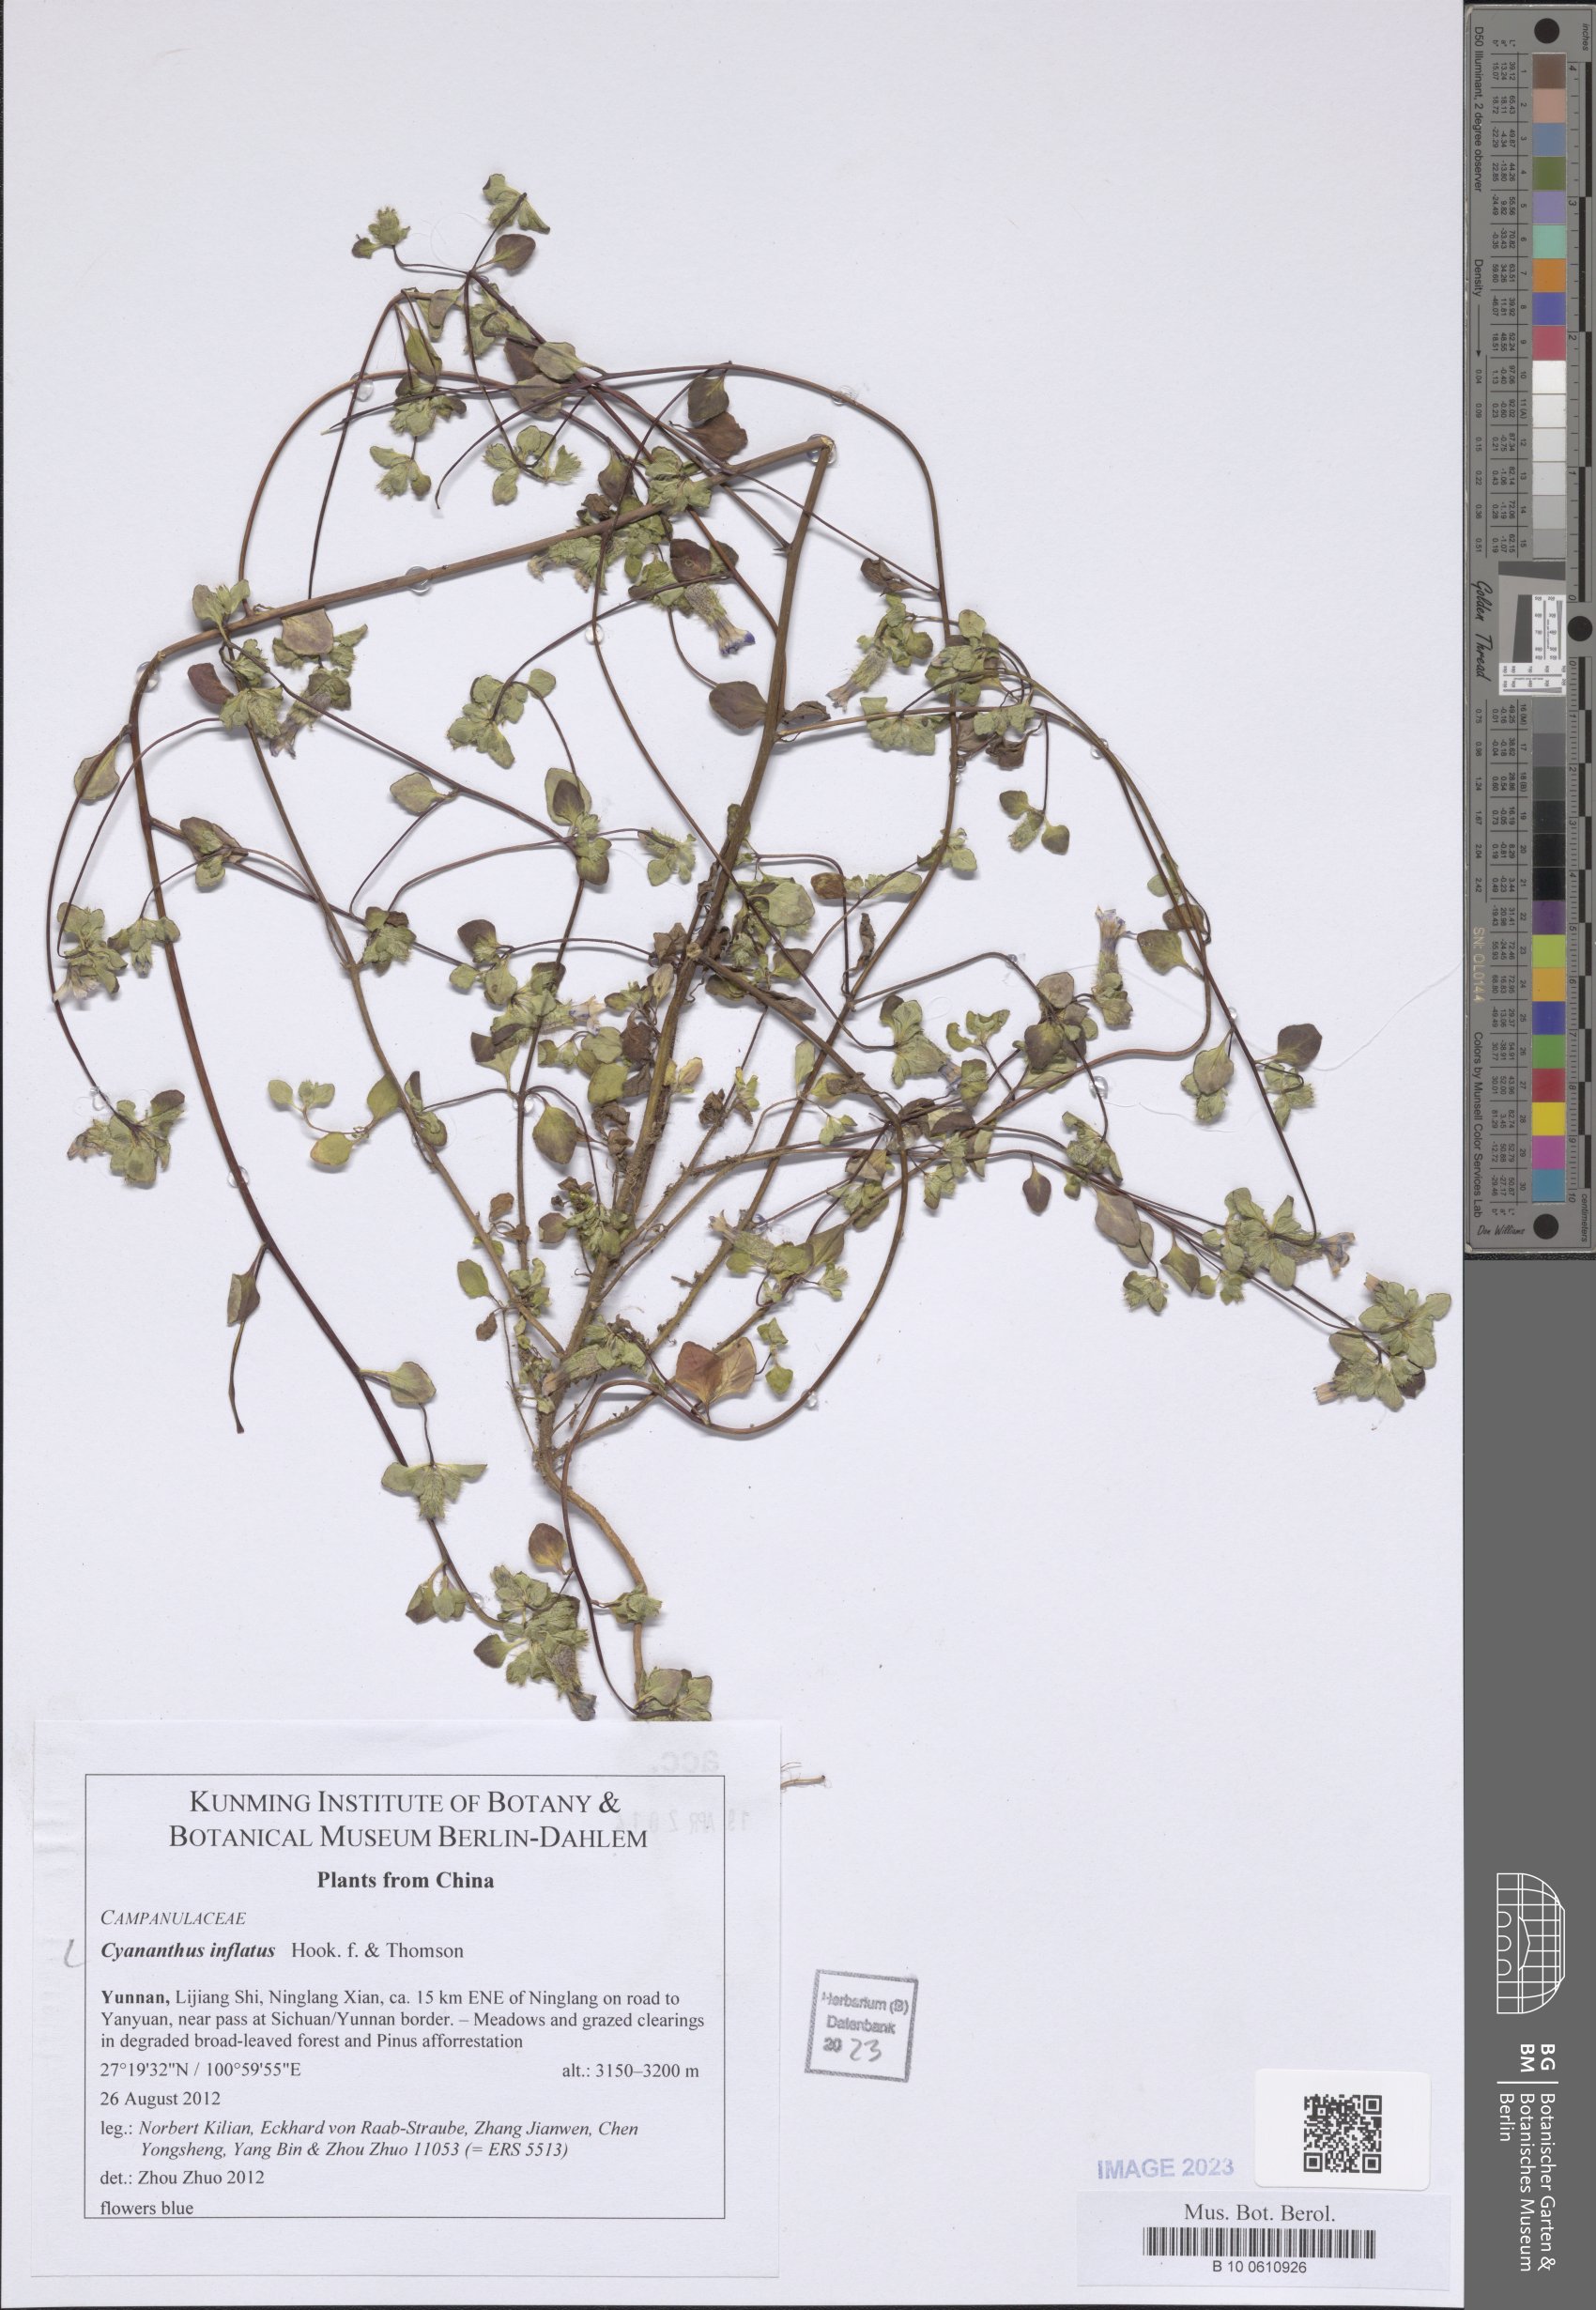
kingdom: Plantae
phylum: Tracheophyta
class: Magnoliopsida
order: Asterales
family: Campanulaceae
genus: Cyananthus
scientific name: Cyananthus inflatus
